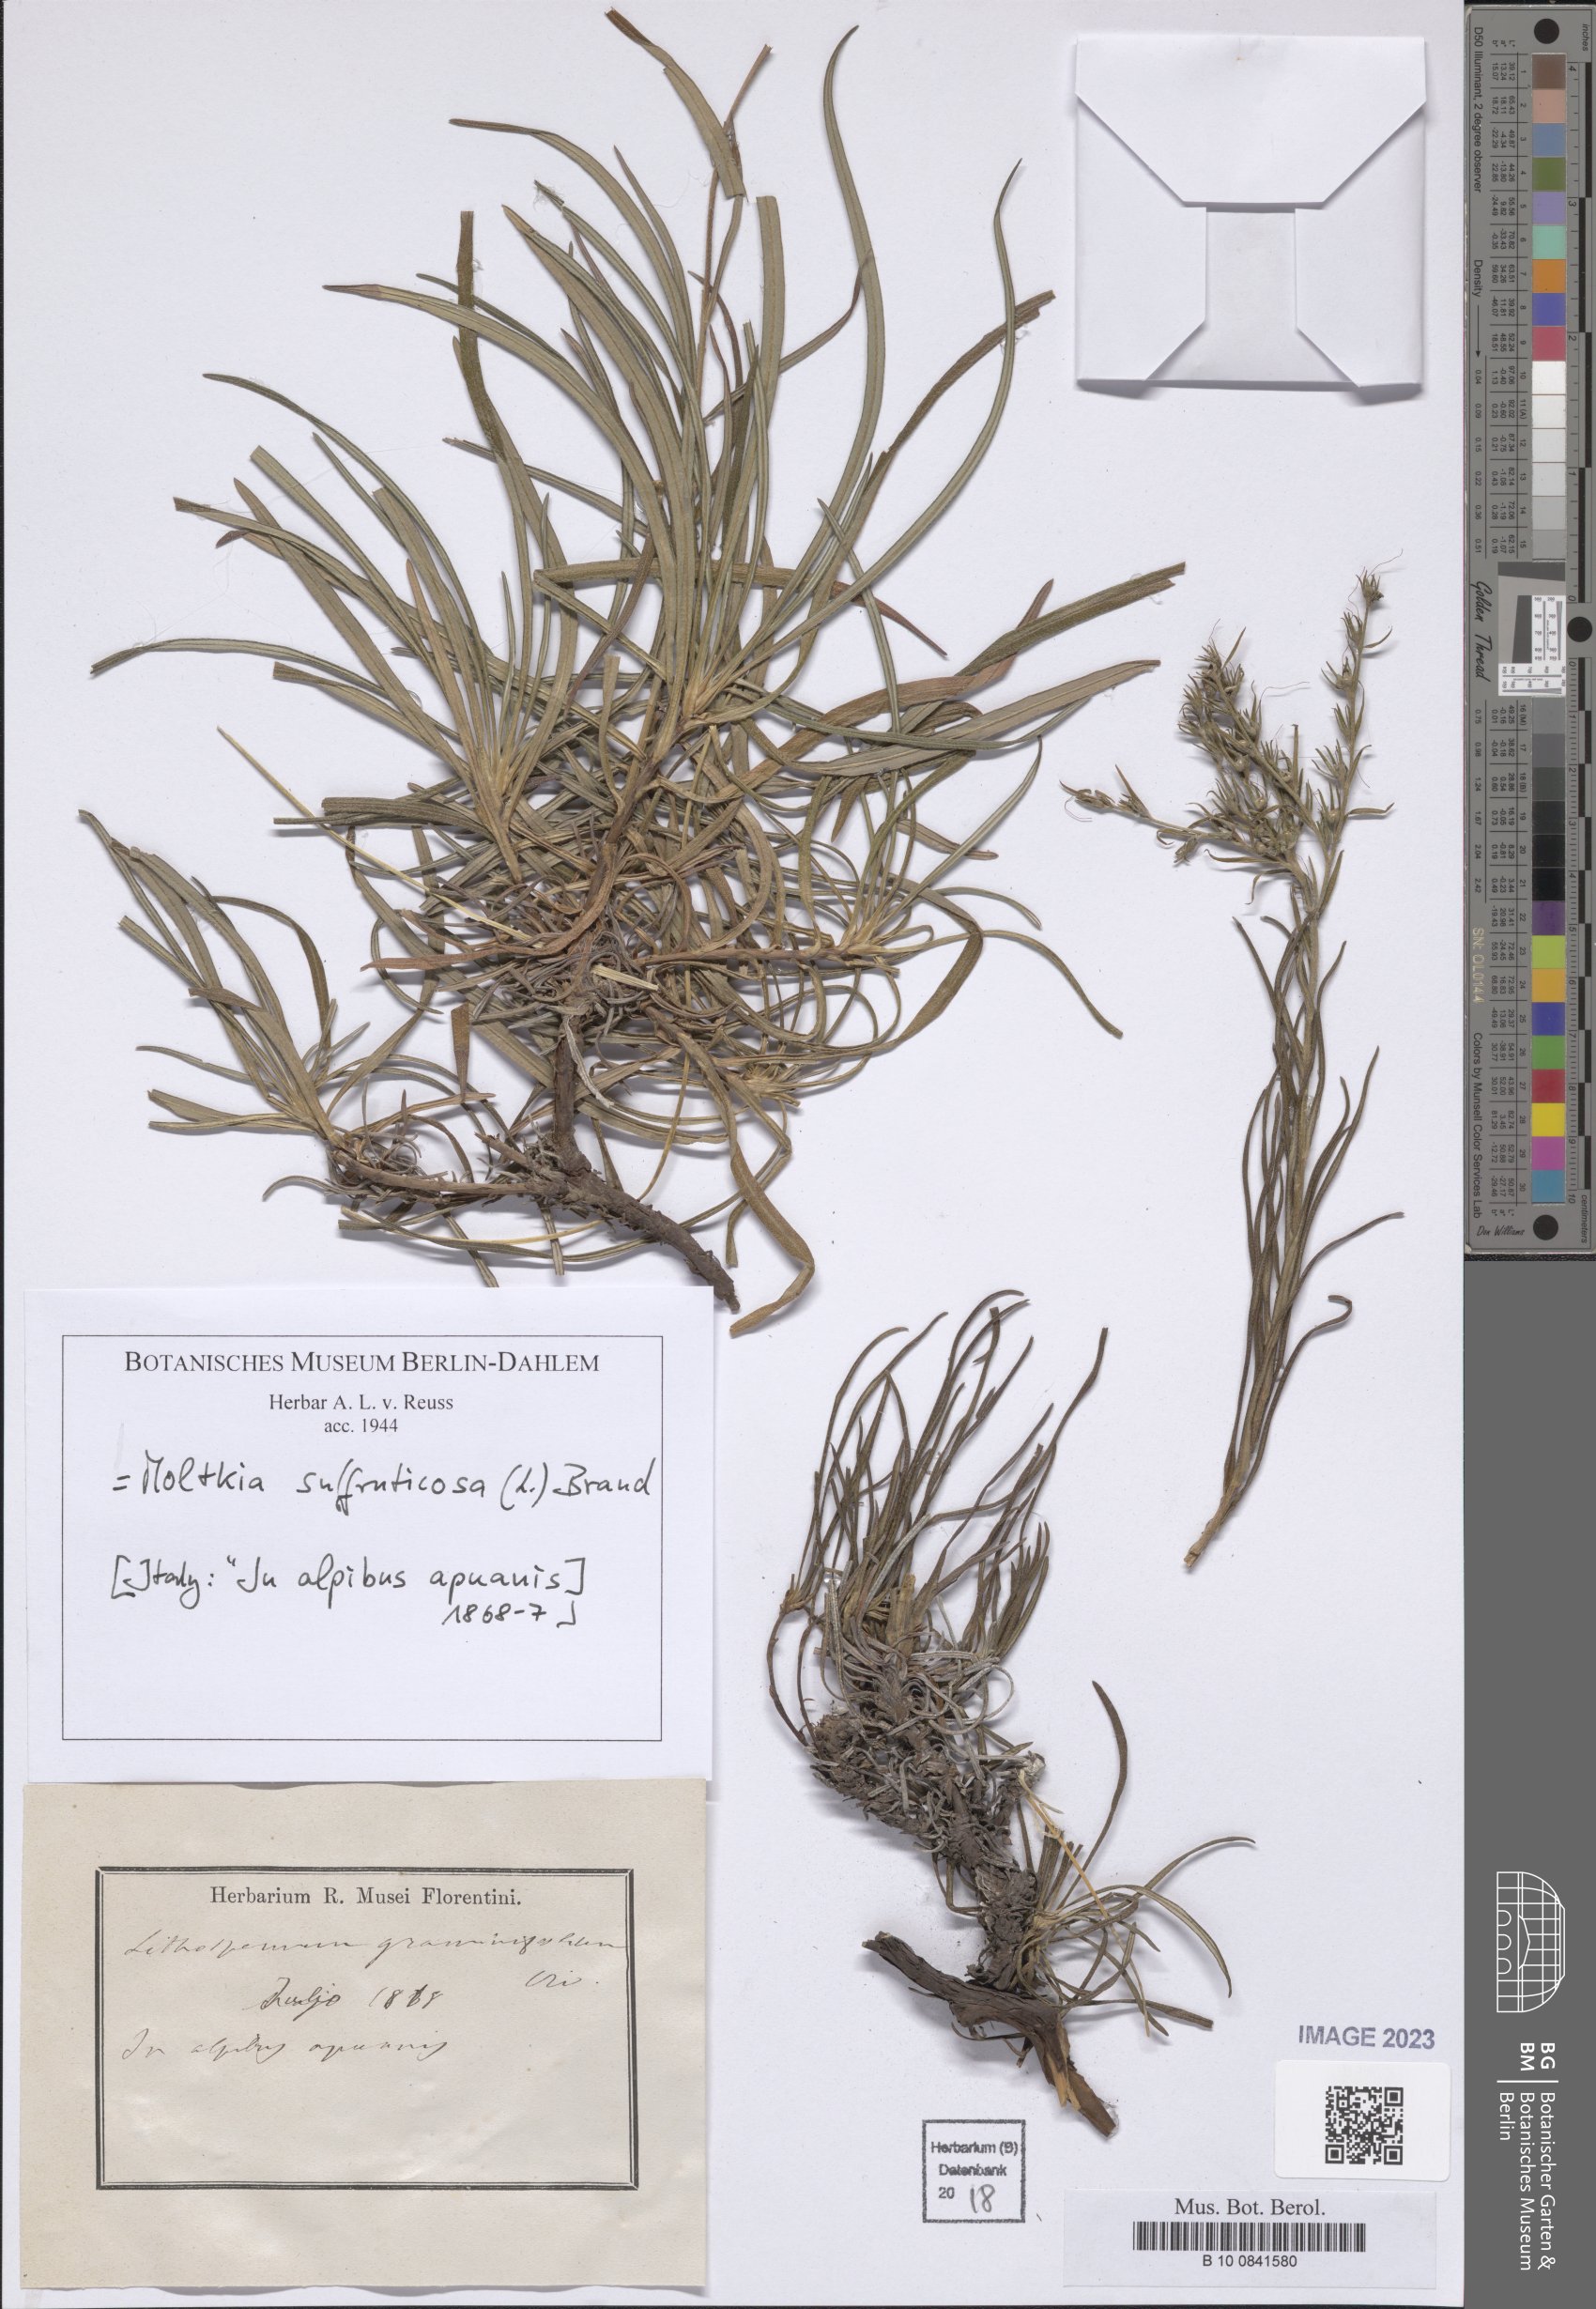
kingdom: Plantae
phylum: Tracheophyta
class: Magnoliopsida
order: Boraginales
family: Boraginaceae
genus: Moltkia
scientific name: Moltkia suffruticosa
